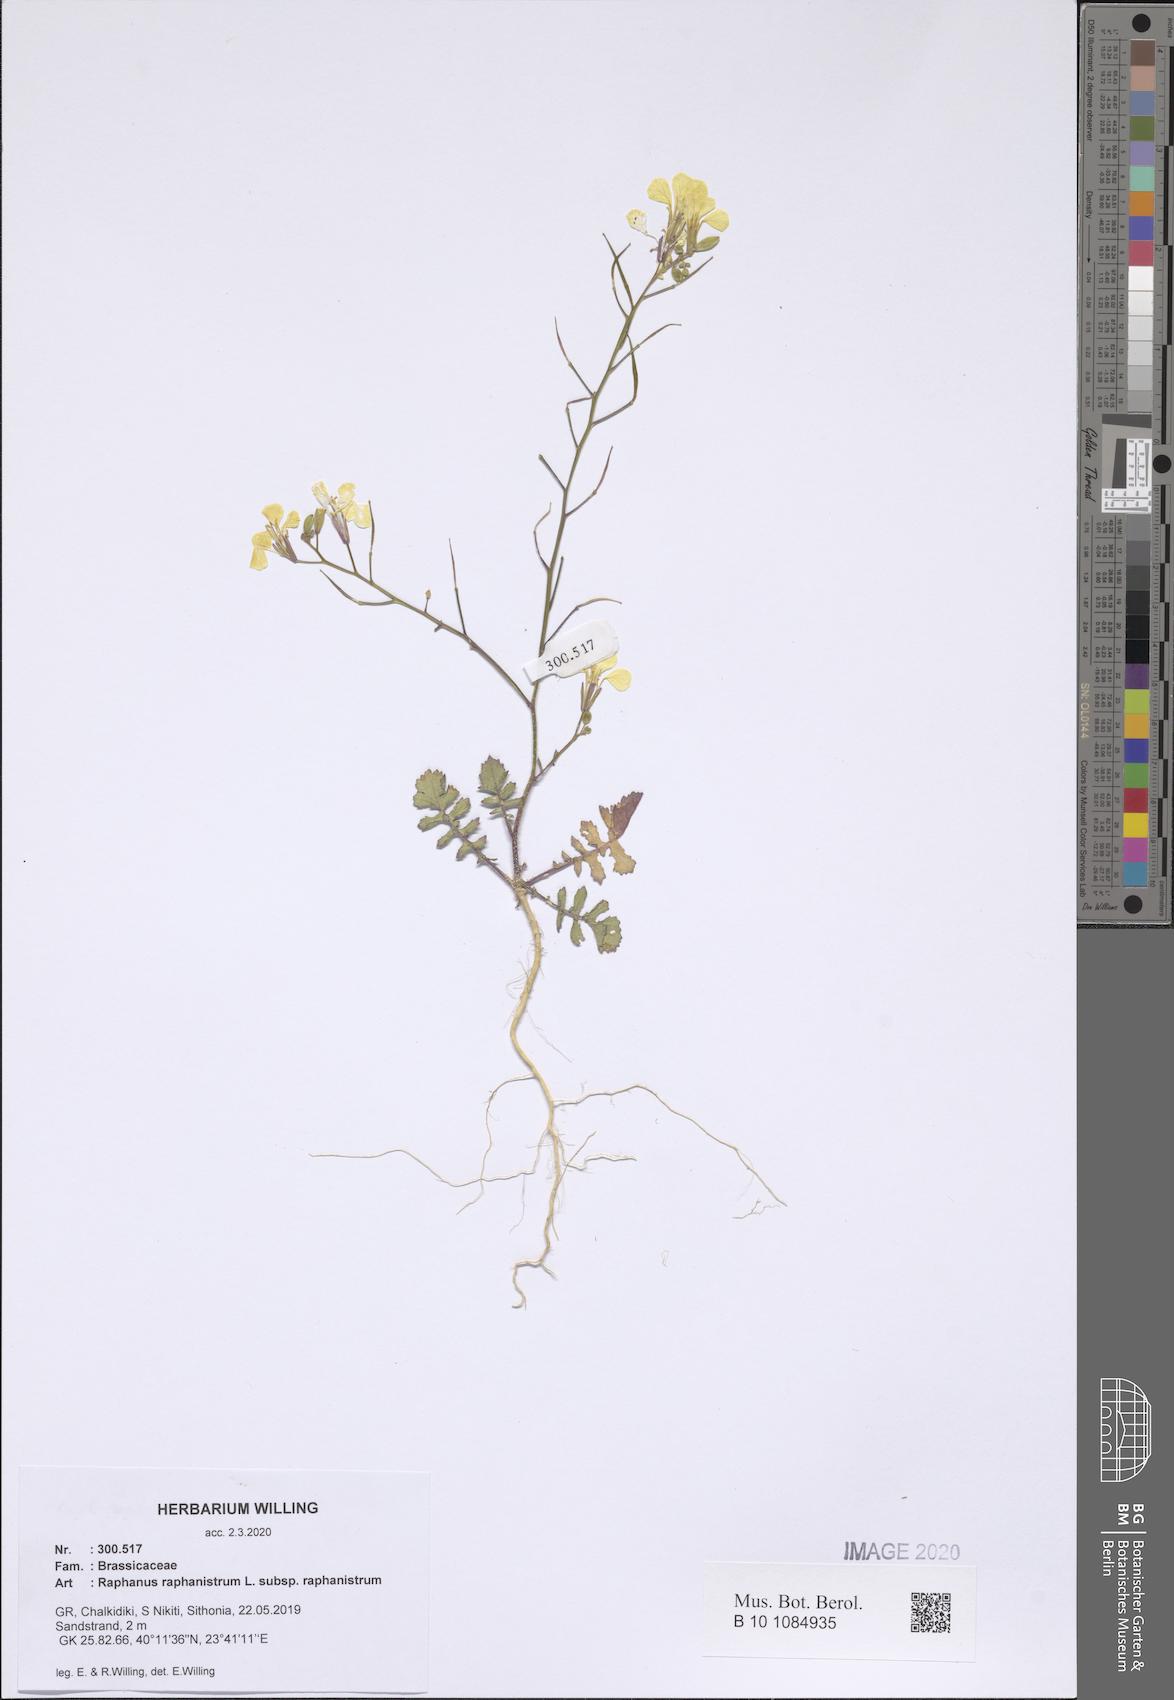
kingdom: Plantae
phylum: Tracheophyta
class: Magnoliopsida
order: Brassicales
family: Brassicaceae
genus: Raphanus
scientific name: Raphanus raphanistrum
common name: Wild radish
